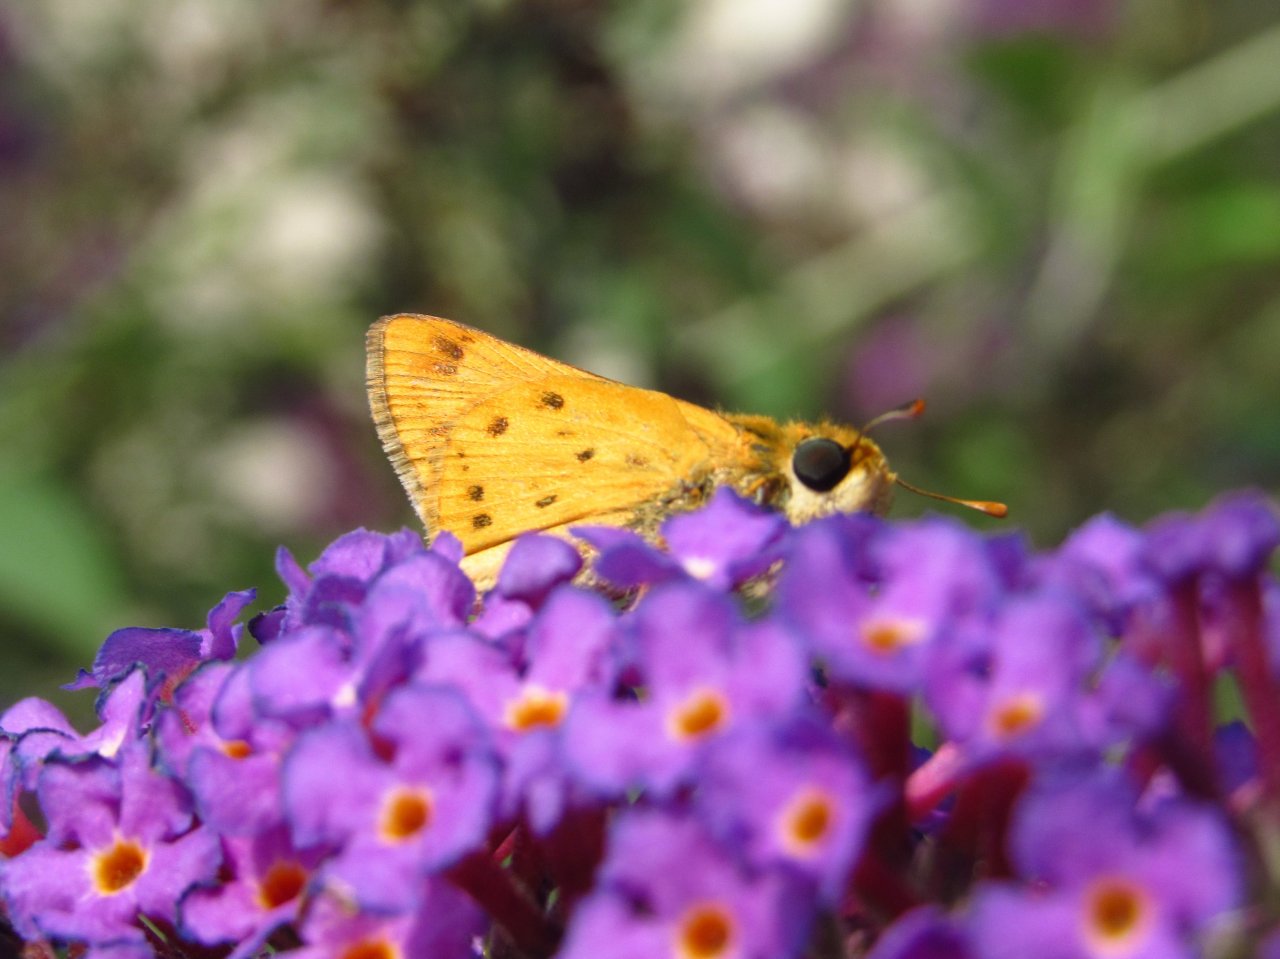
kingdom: Animalia
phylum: Arthropoda
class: Insecta
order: Lepidoptera
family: Hesperiidae
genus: Hylephila
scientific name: Hylephila phyleus
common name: Fiery Skipper
